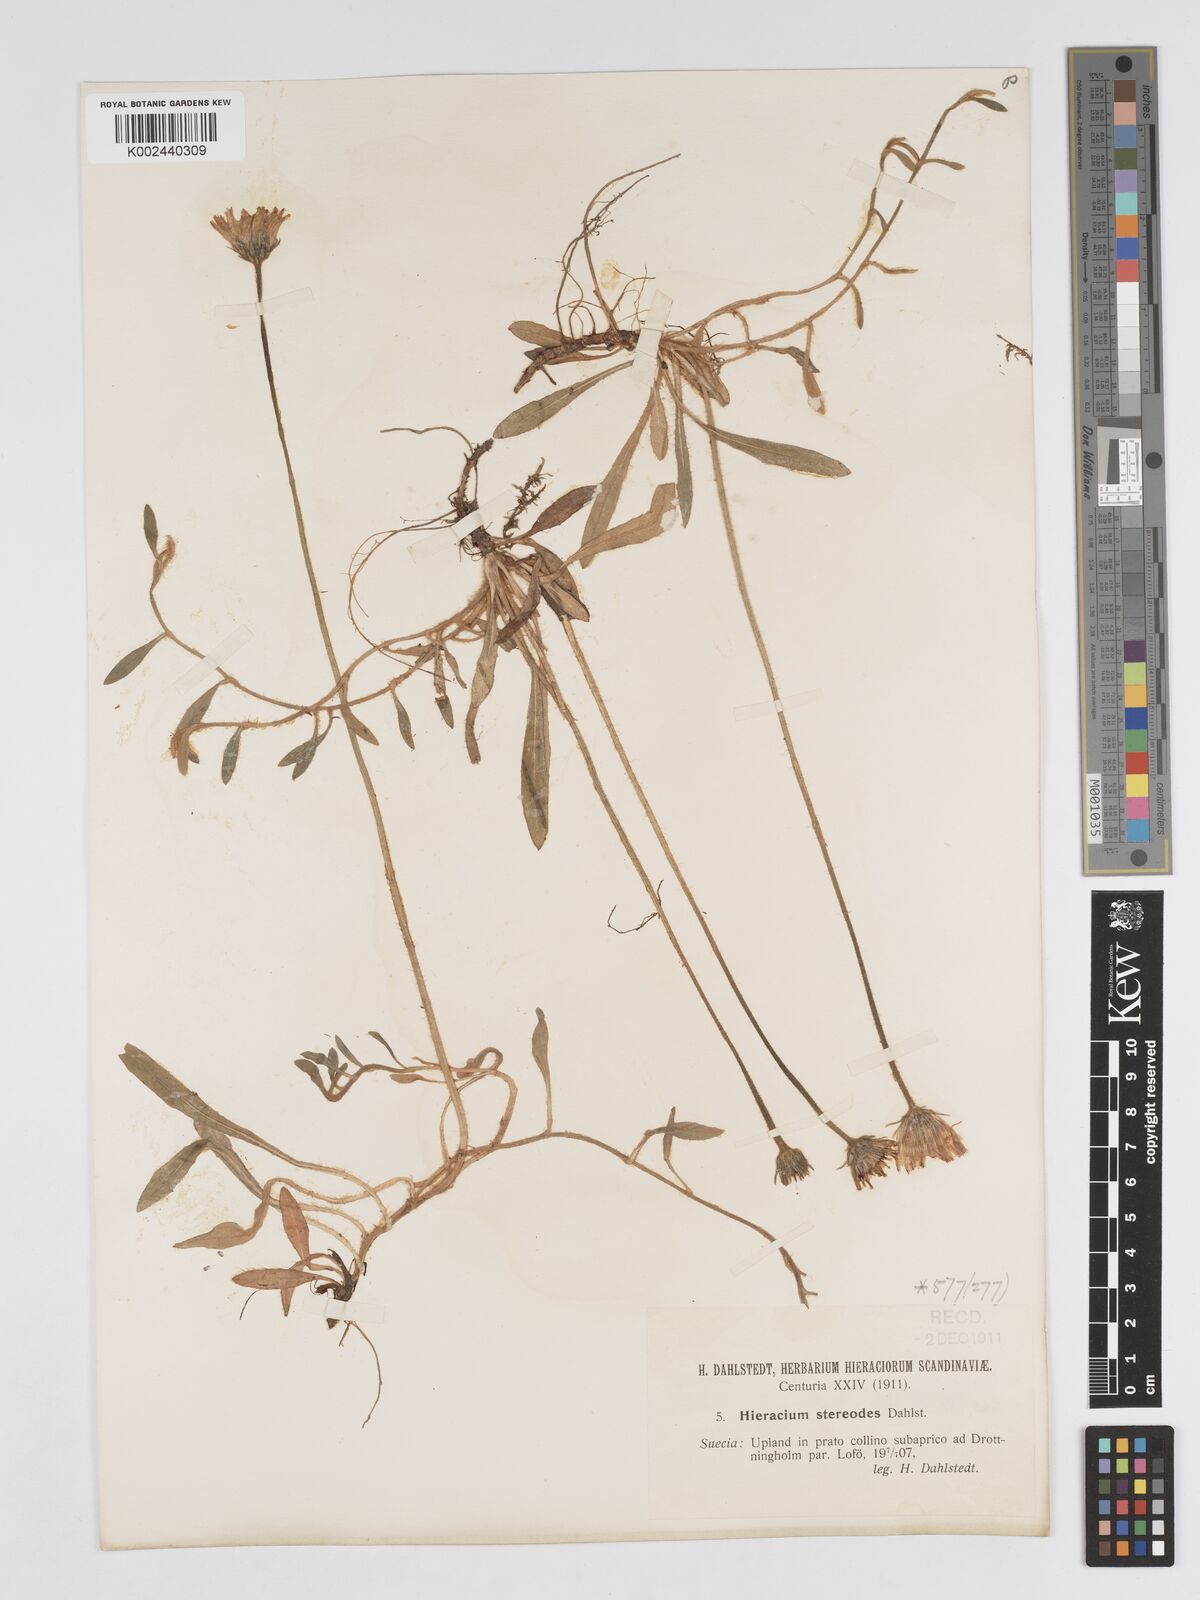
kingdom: Plantae
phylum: Tracheophyta
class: Magnoliopsida
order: Asterales
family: Asteraceae
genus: Pilosella
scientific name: Pilosella officinarum
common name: Mouse-ear hawkweed
